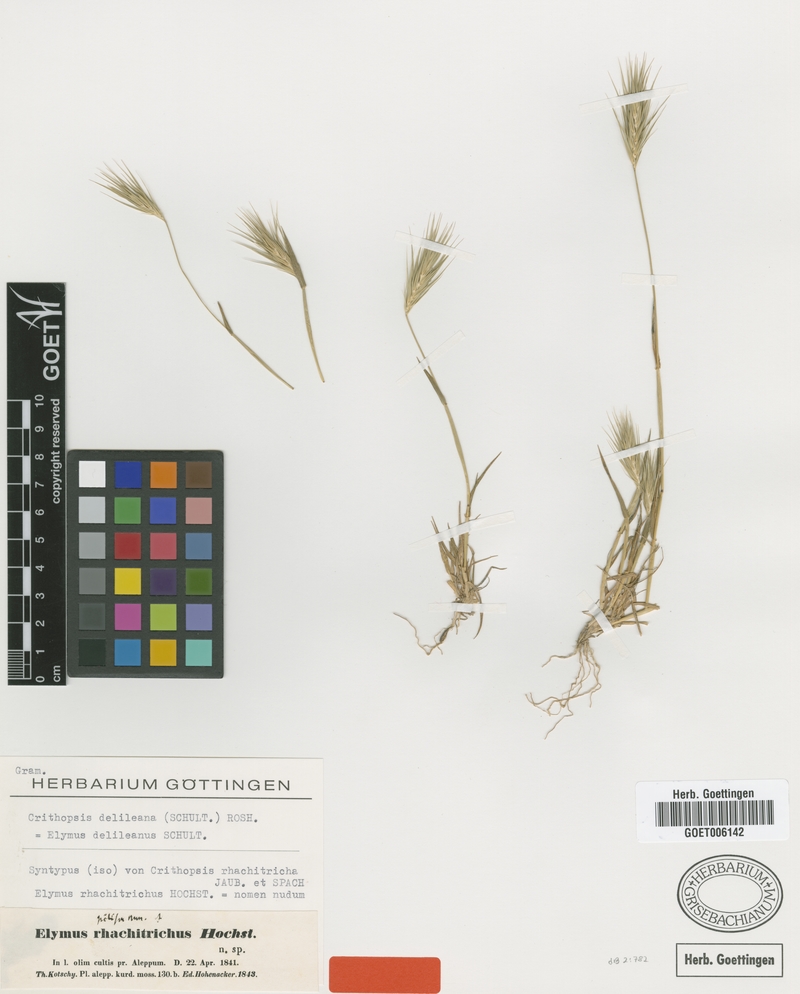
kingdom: Plantae
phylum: Tracheophyta
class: Liliopsida
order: Poales
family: Poaceae
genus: Crithopsis
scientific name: Crithopsis delileana
